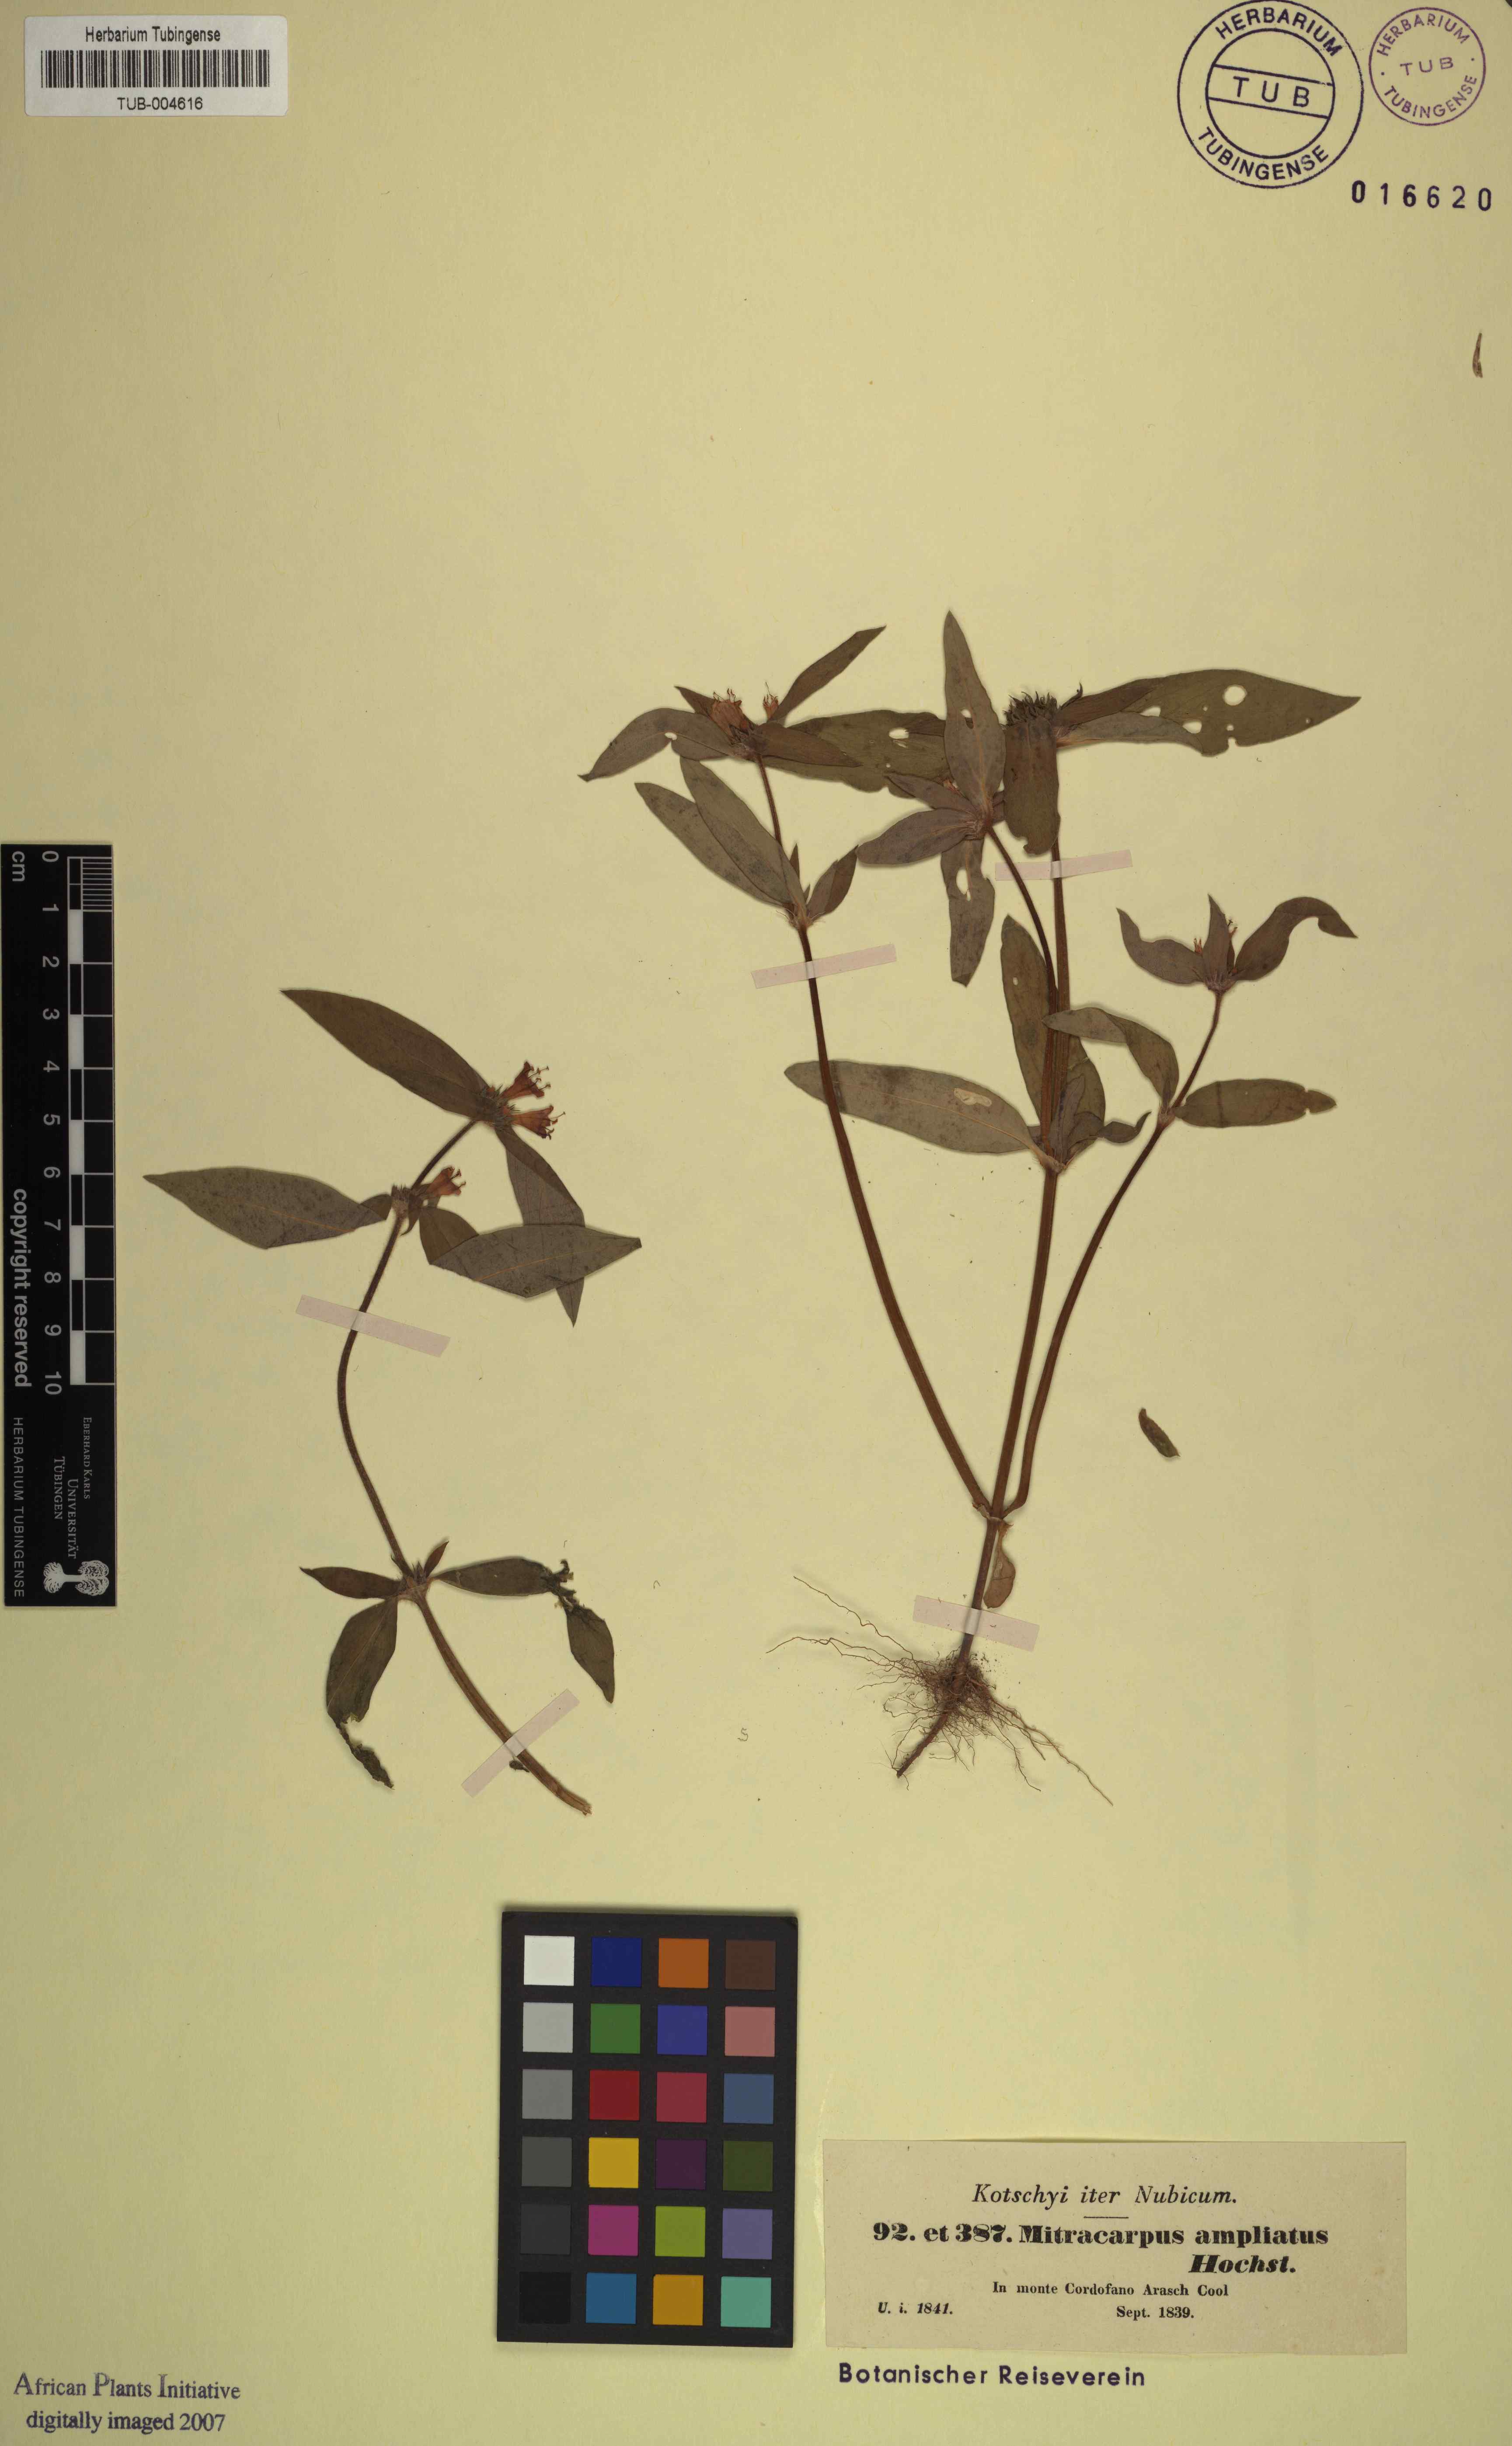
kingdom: Plantae
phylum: Tracheophyta
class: Magnoliopsida
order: Gentianales
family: Rubiaceae
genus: Spermacoce
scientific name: Spermacoce sphaerostigma
